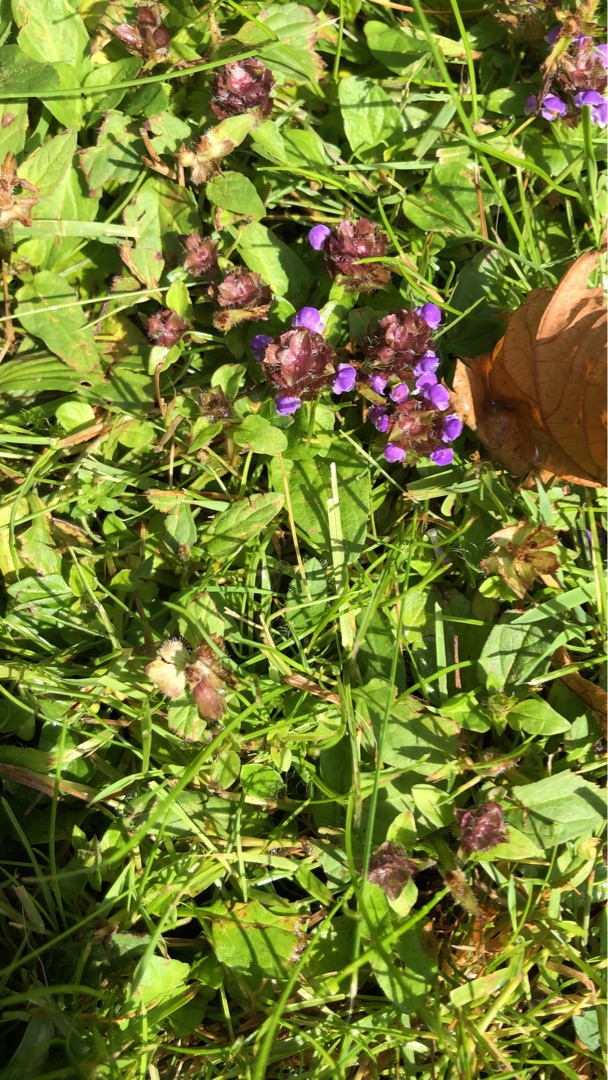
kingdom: Plantae
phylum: Tracheophyta
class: Magnoliopsida
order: Lamiales
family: Lamiaceae
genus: Prunella
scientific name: Prunella vulgaris
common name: Almindelig brunelle
